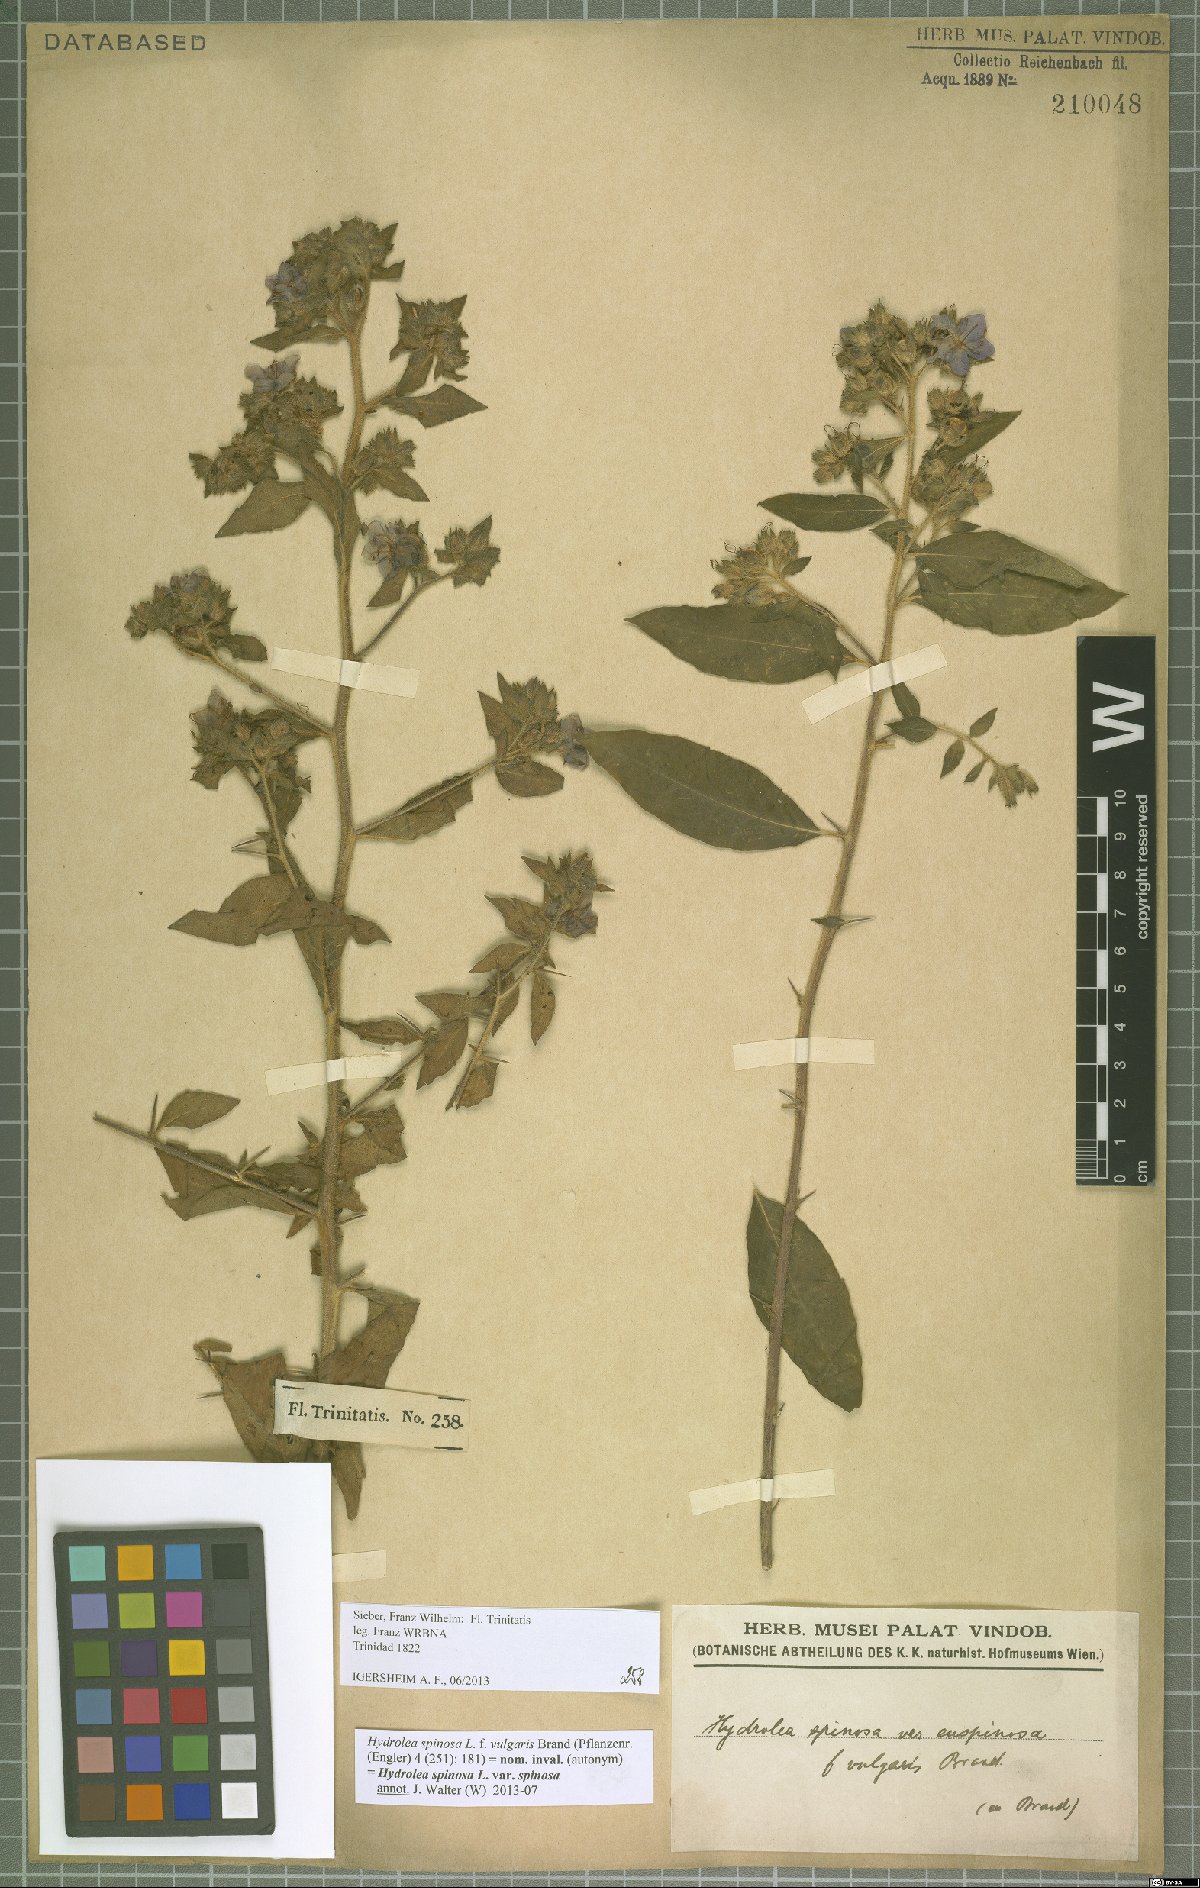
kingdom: Plantae
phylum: Tracheophyta
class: Magnoliopsida
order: Solanales
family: Hydroleaceae
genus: Hydrolea
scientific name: Hydrolea spinosa
